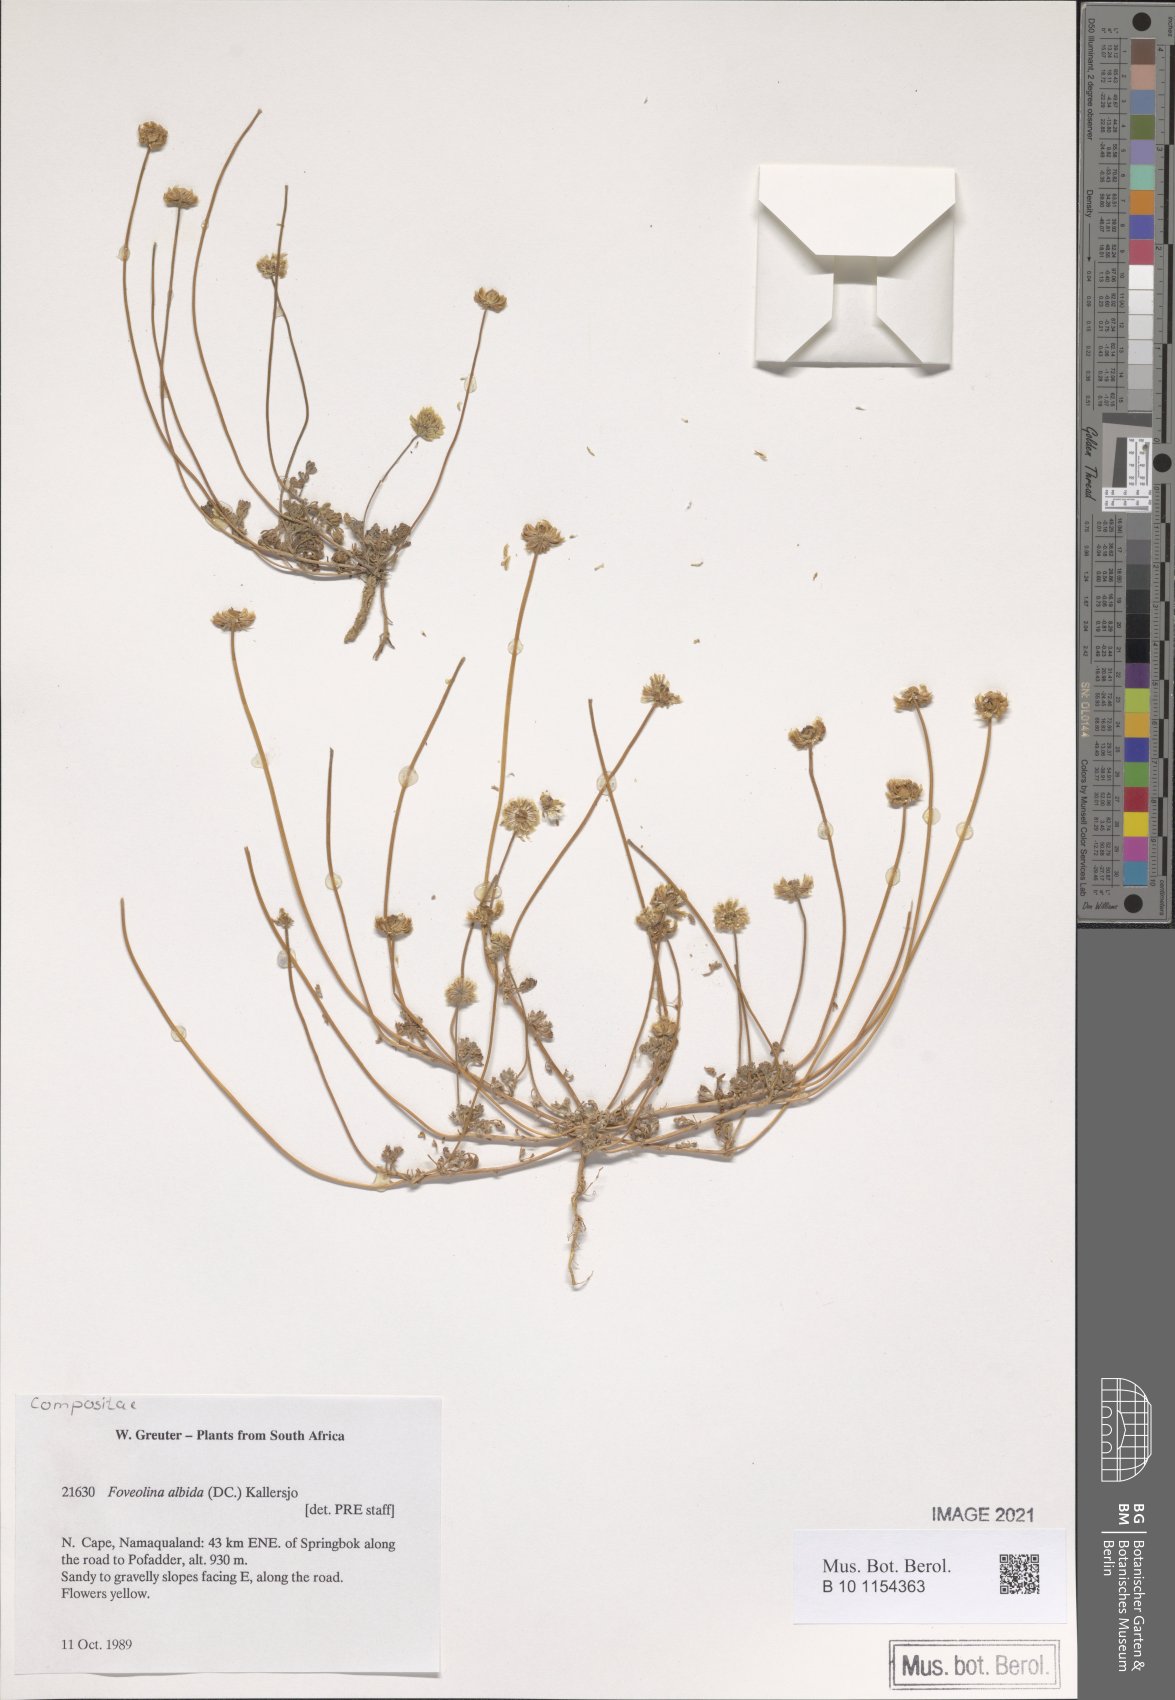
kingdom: Plantae
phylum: Tracheophyta
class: Magnoliopsida
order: Asterales
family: Asteraceae
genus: Foveolina
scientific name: Foveolina dichotoma
